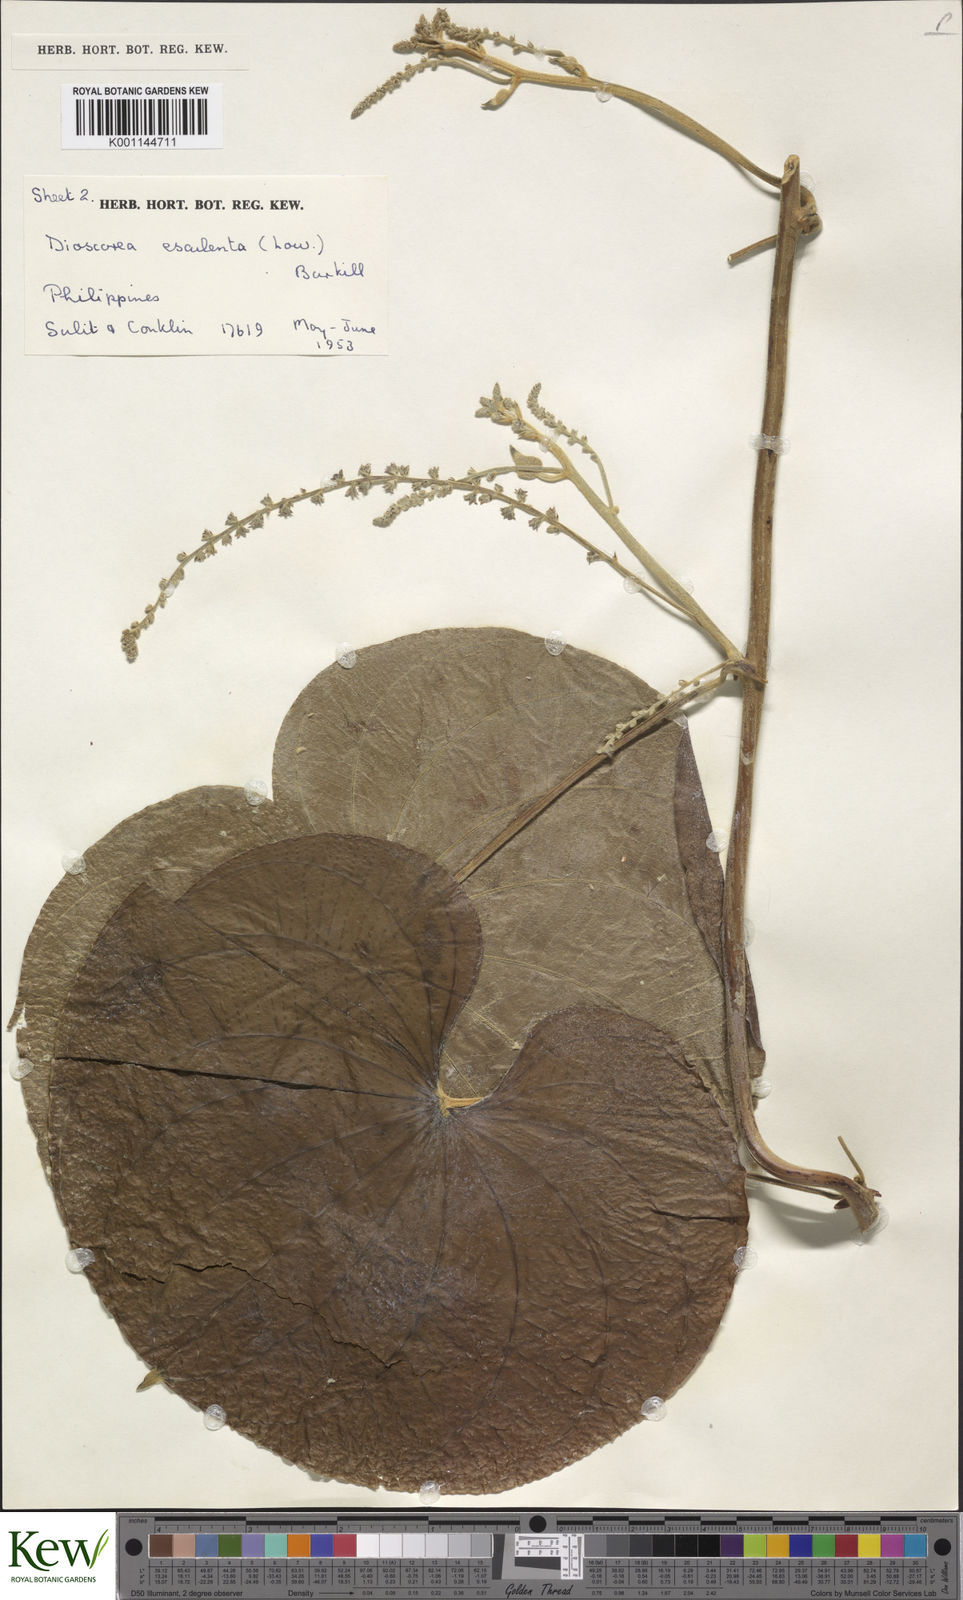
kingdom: Plantae
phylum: Tracheophyta
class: Liliopsida
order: Dioscoreales
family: Dioscoreaceae
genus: Dioscorea
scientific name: Dioscorea esculenta
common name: Chinese yam
